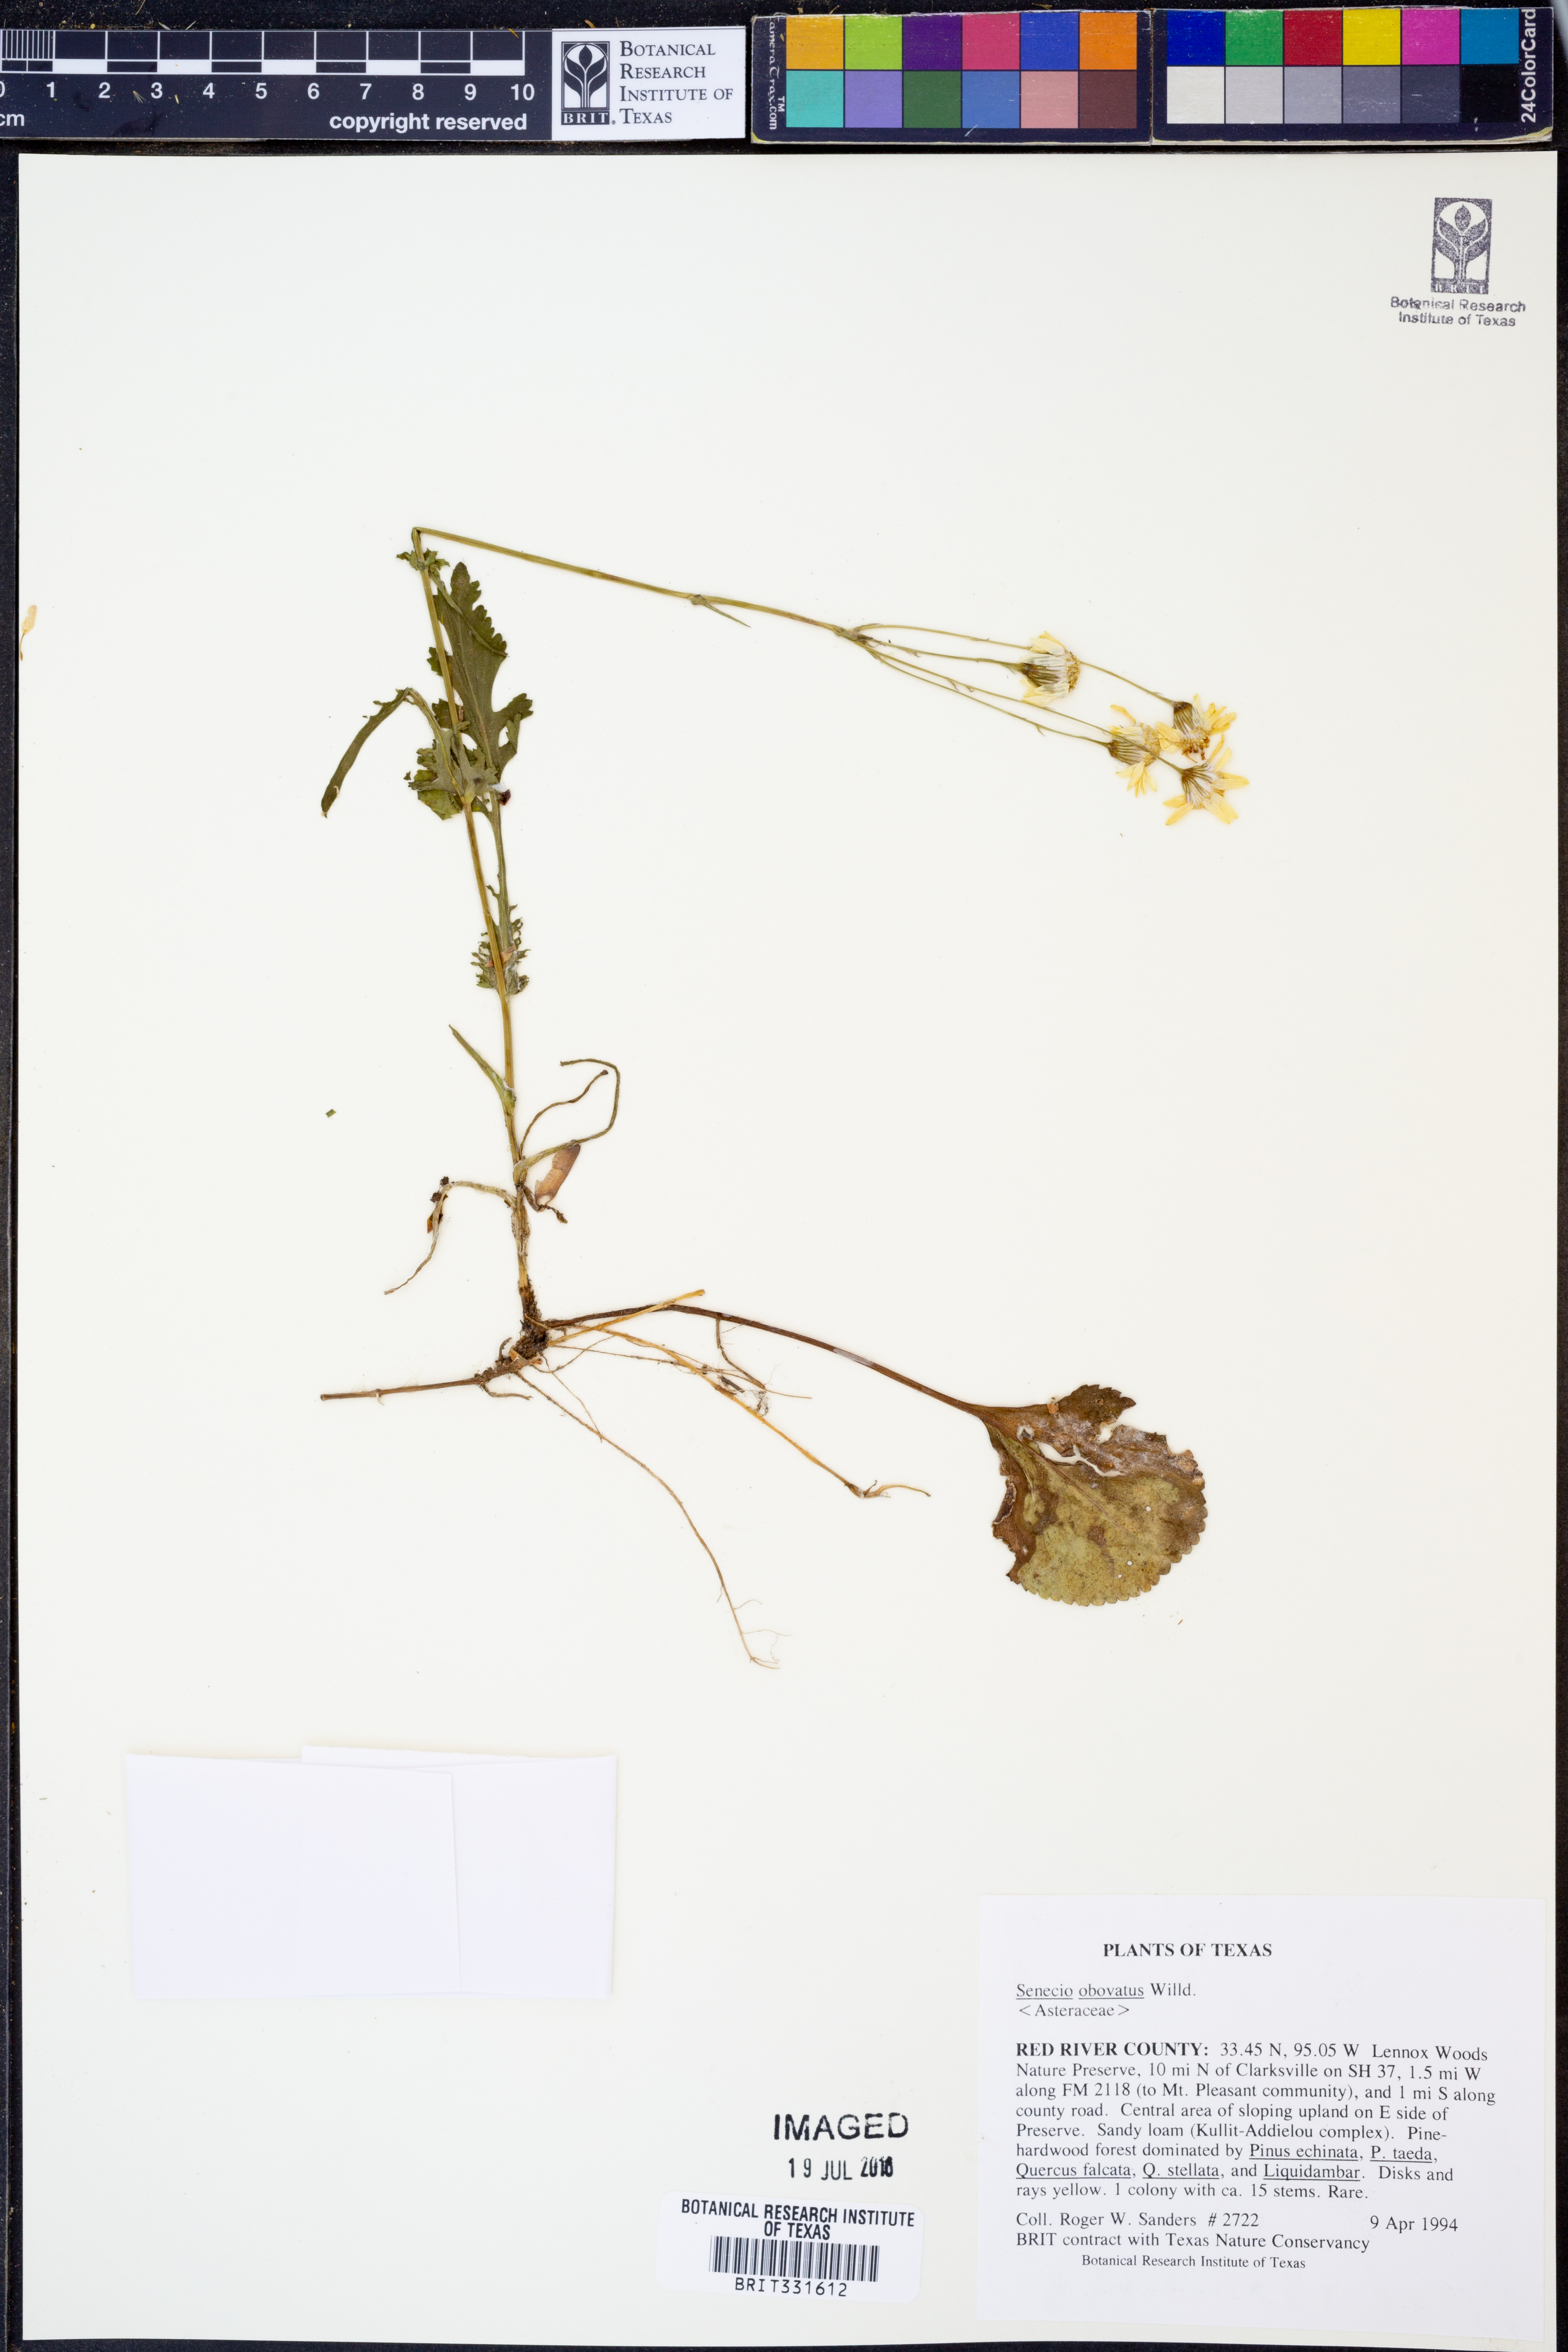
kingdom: Plantae
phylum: Tracheophyta
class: Magnoliopsida
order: Asterales
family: Asteraceae
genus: Senecio
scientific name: Senecio provincialis
